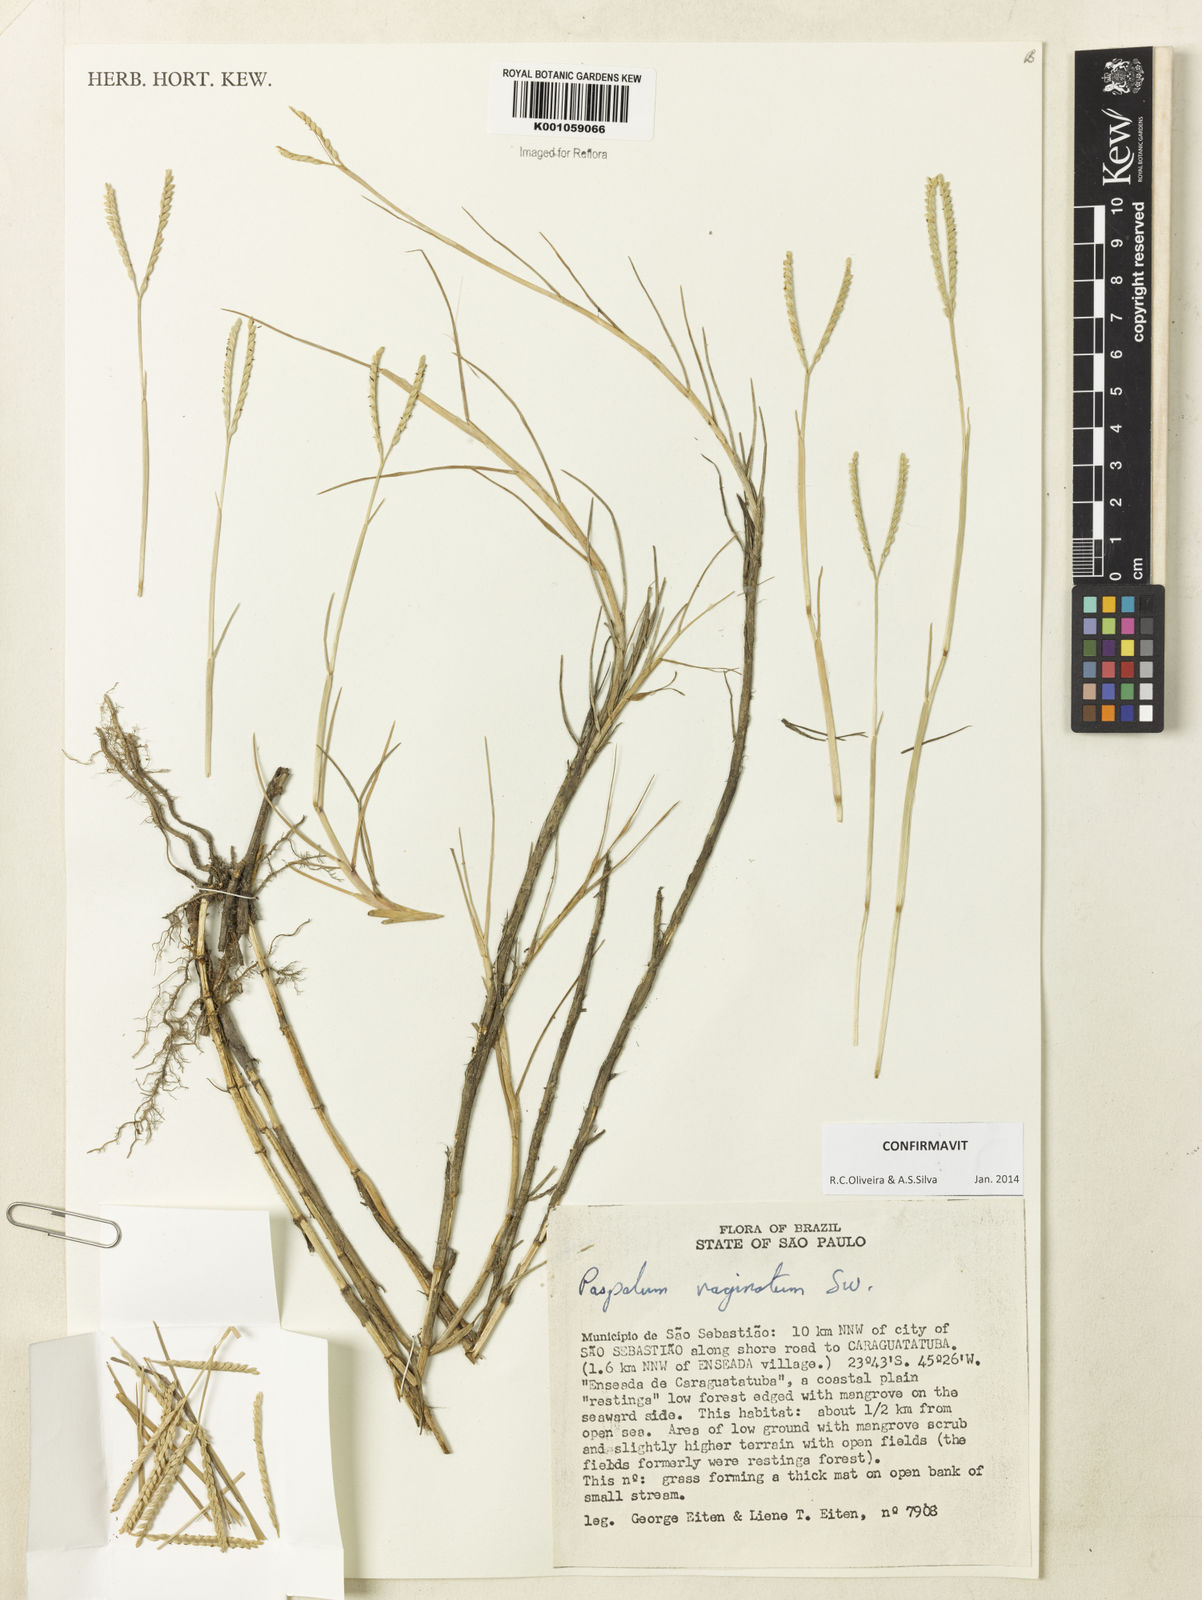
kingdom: Plantae
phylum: Tracheophyta
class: Liliopsida
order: Poales
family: Poaceae
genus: Paspalum
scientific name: Paspalum vaginatum
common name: Seashore paspalum
